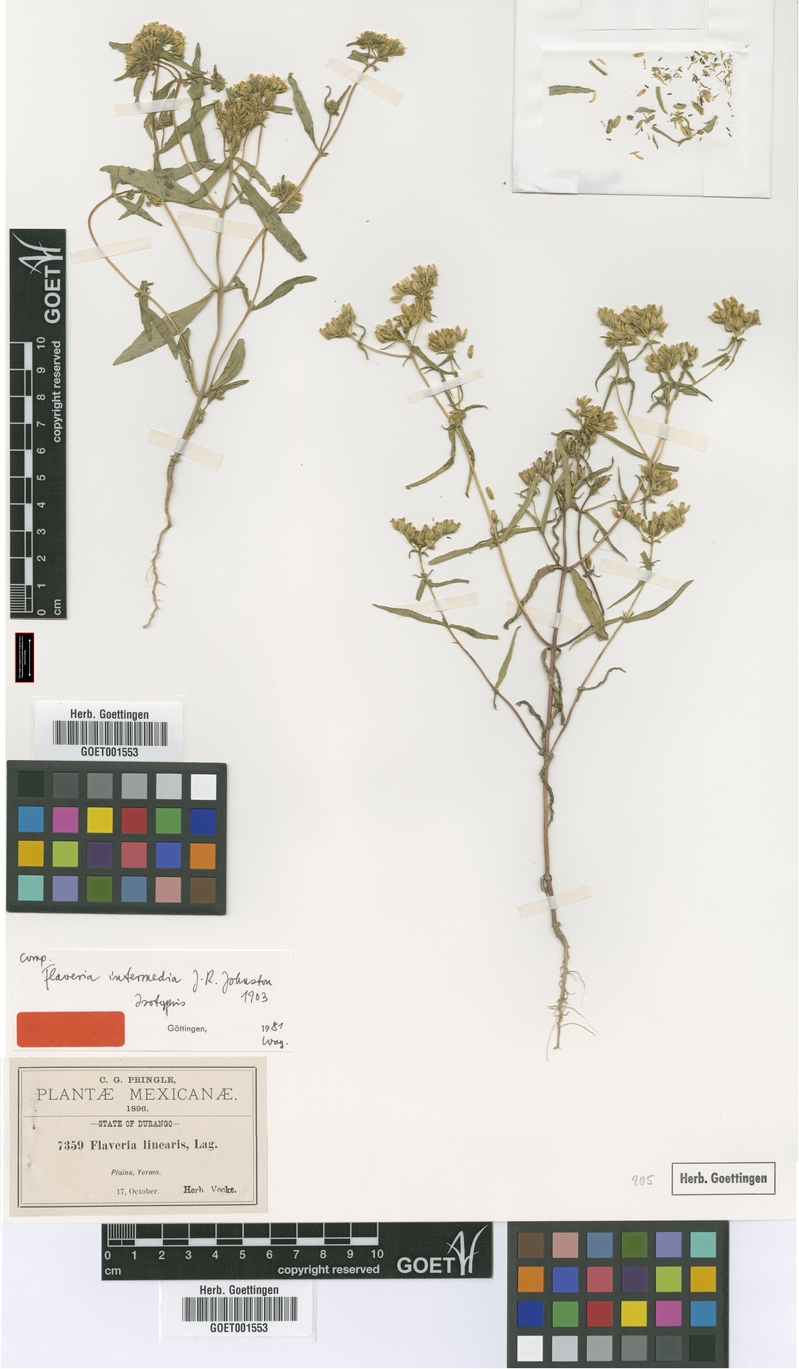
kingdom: Plantae
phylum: Tracheophyta
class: Magnoliopsida
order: Asterales
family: Asteraceae
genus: Flaveria
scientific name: Flaveria palmeri
